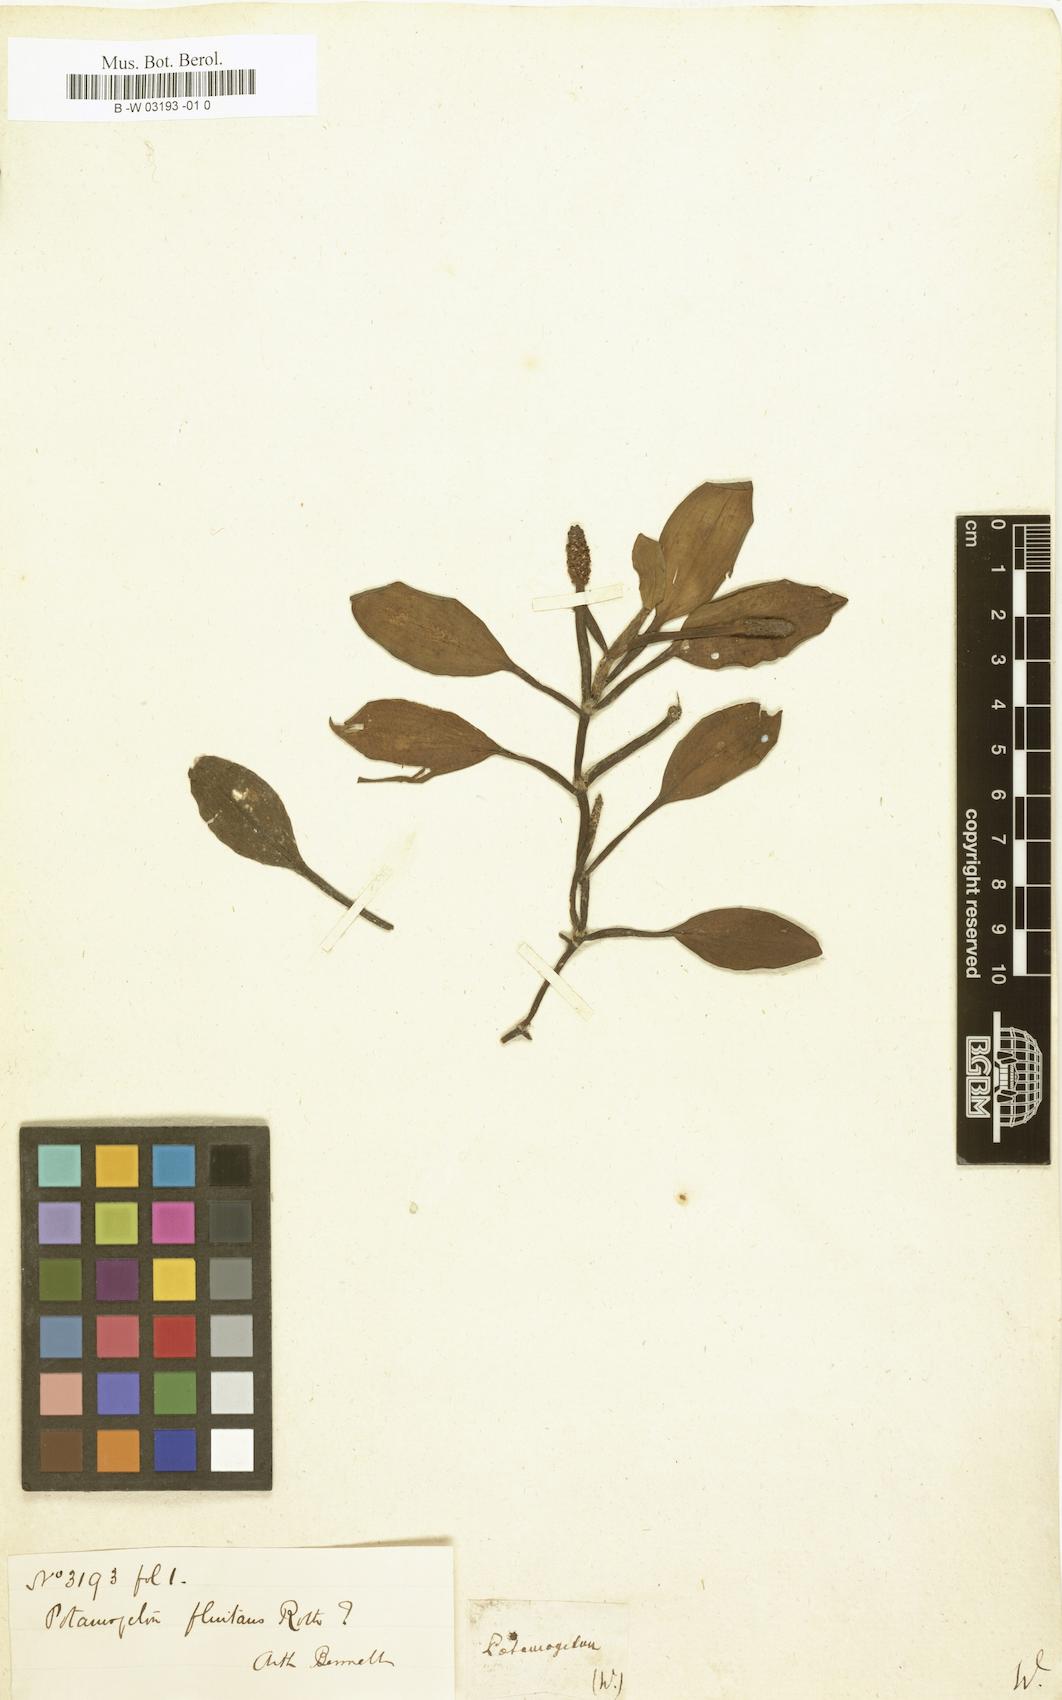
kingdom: Plantae
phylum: Tracheophyta
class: Liliopsida
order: Alismatales
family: Potamogetonaceae
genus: Potamogeton
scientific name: Potamogeton spathulatus
